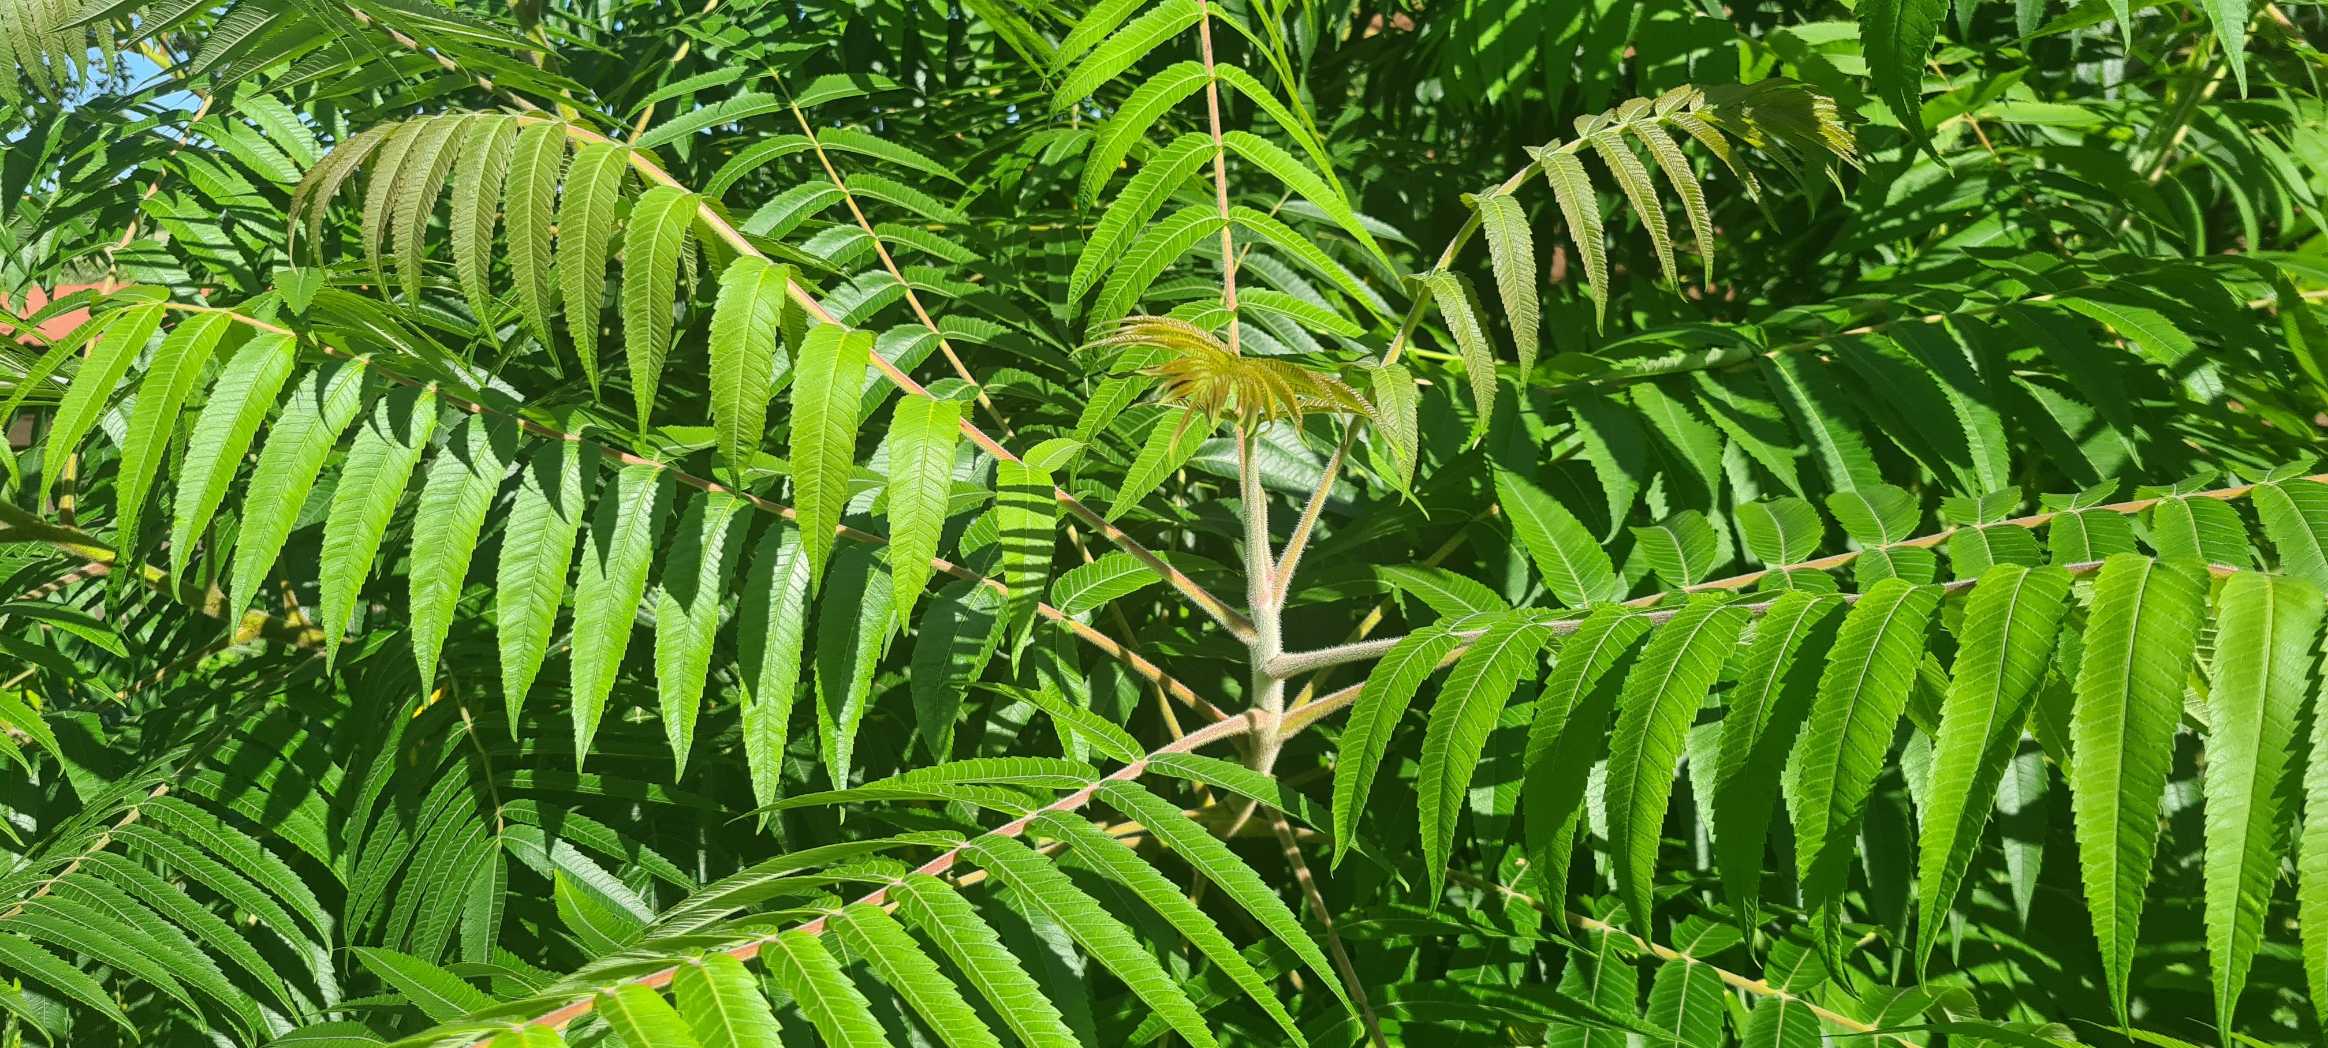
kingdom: Plantae
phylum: Tracheophyta
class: Magnoliopsida
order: Sapindales
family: Anacardiaceae
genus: Rhus
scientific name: Rhus typhina
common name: Hjortetaktræ
